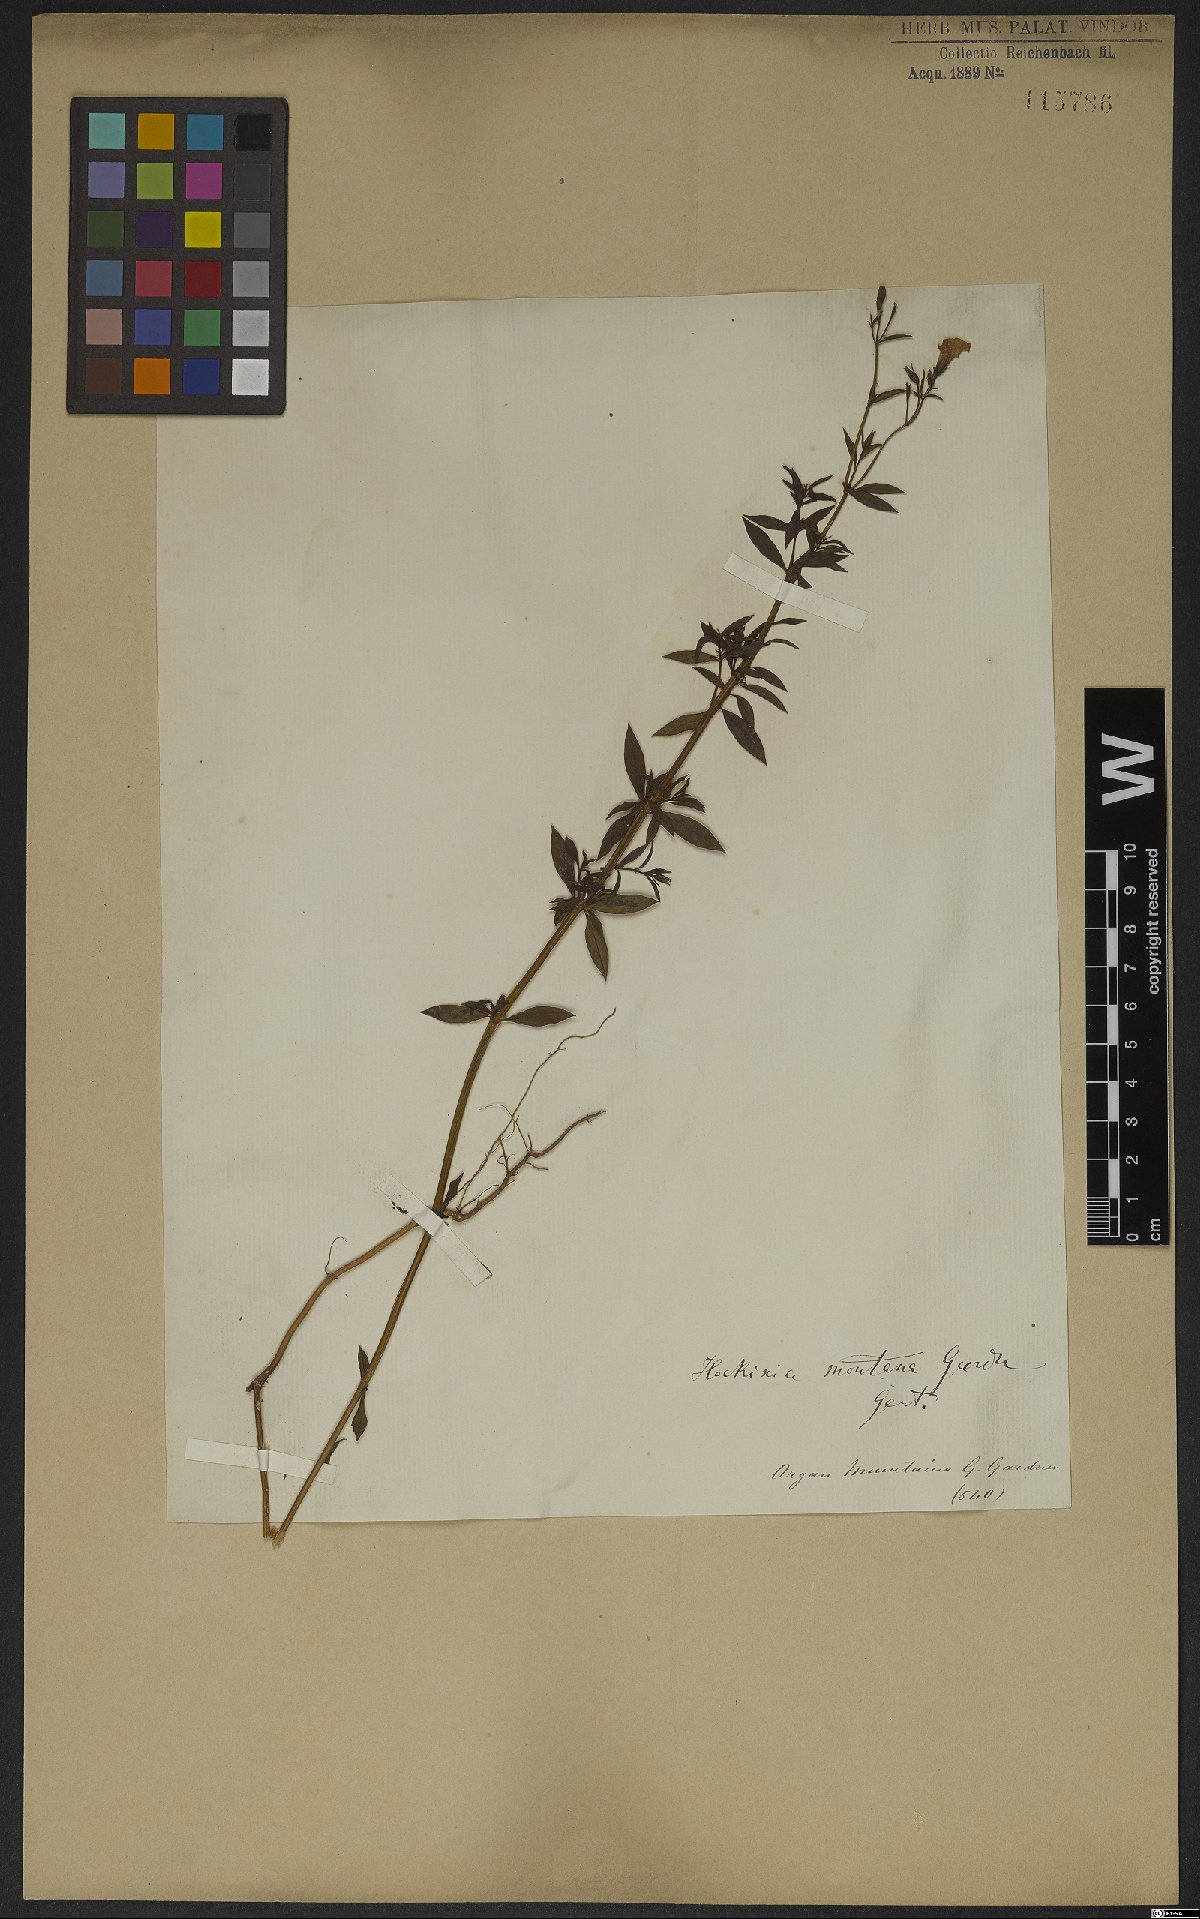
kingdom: Plantae
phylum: Tracheophyta
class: Magnoliopsida
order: Gentianales
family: Gentianaceae
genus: Hockinia
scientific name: Hockinia montana
